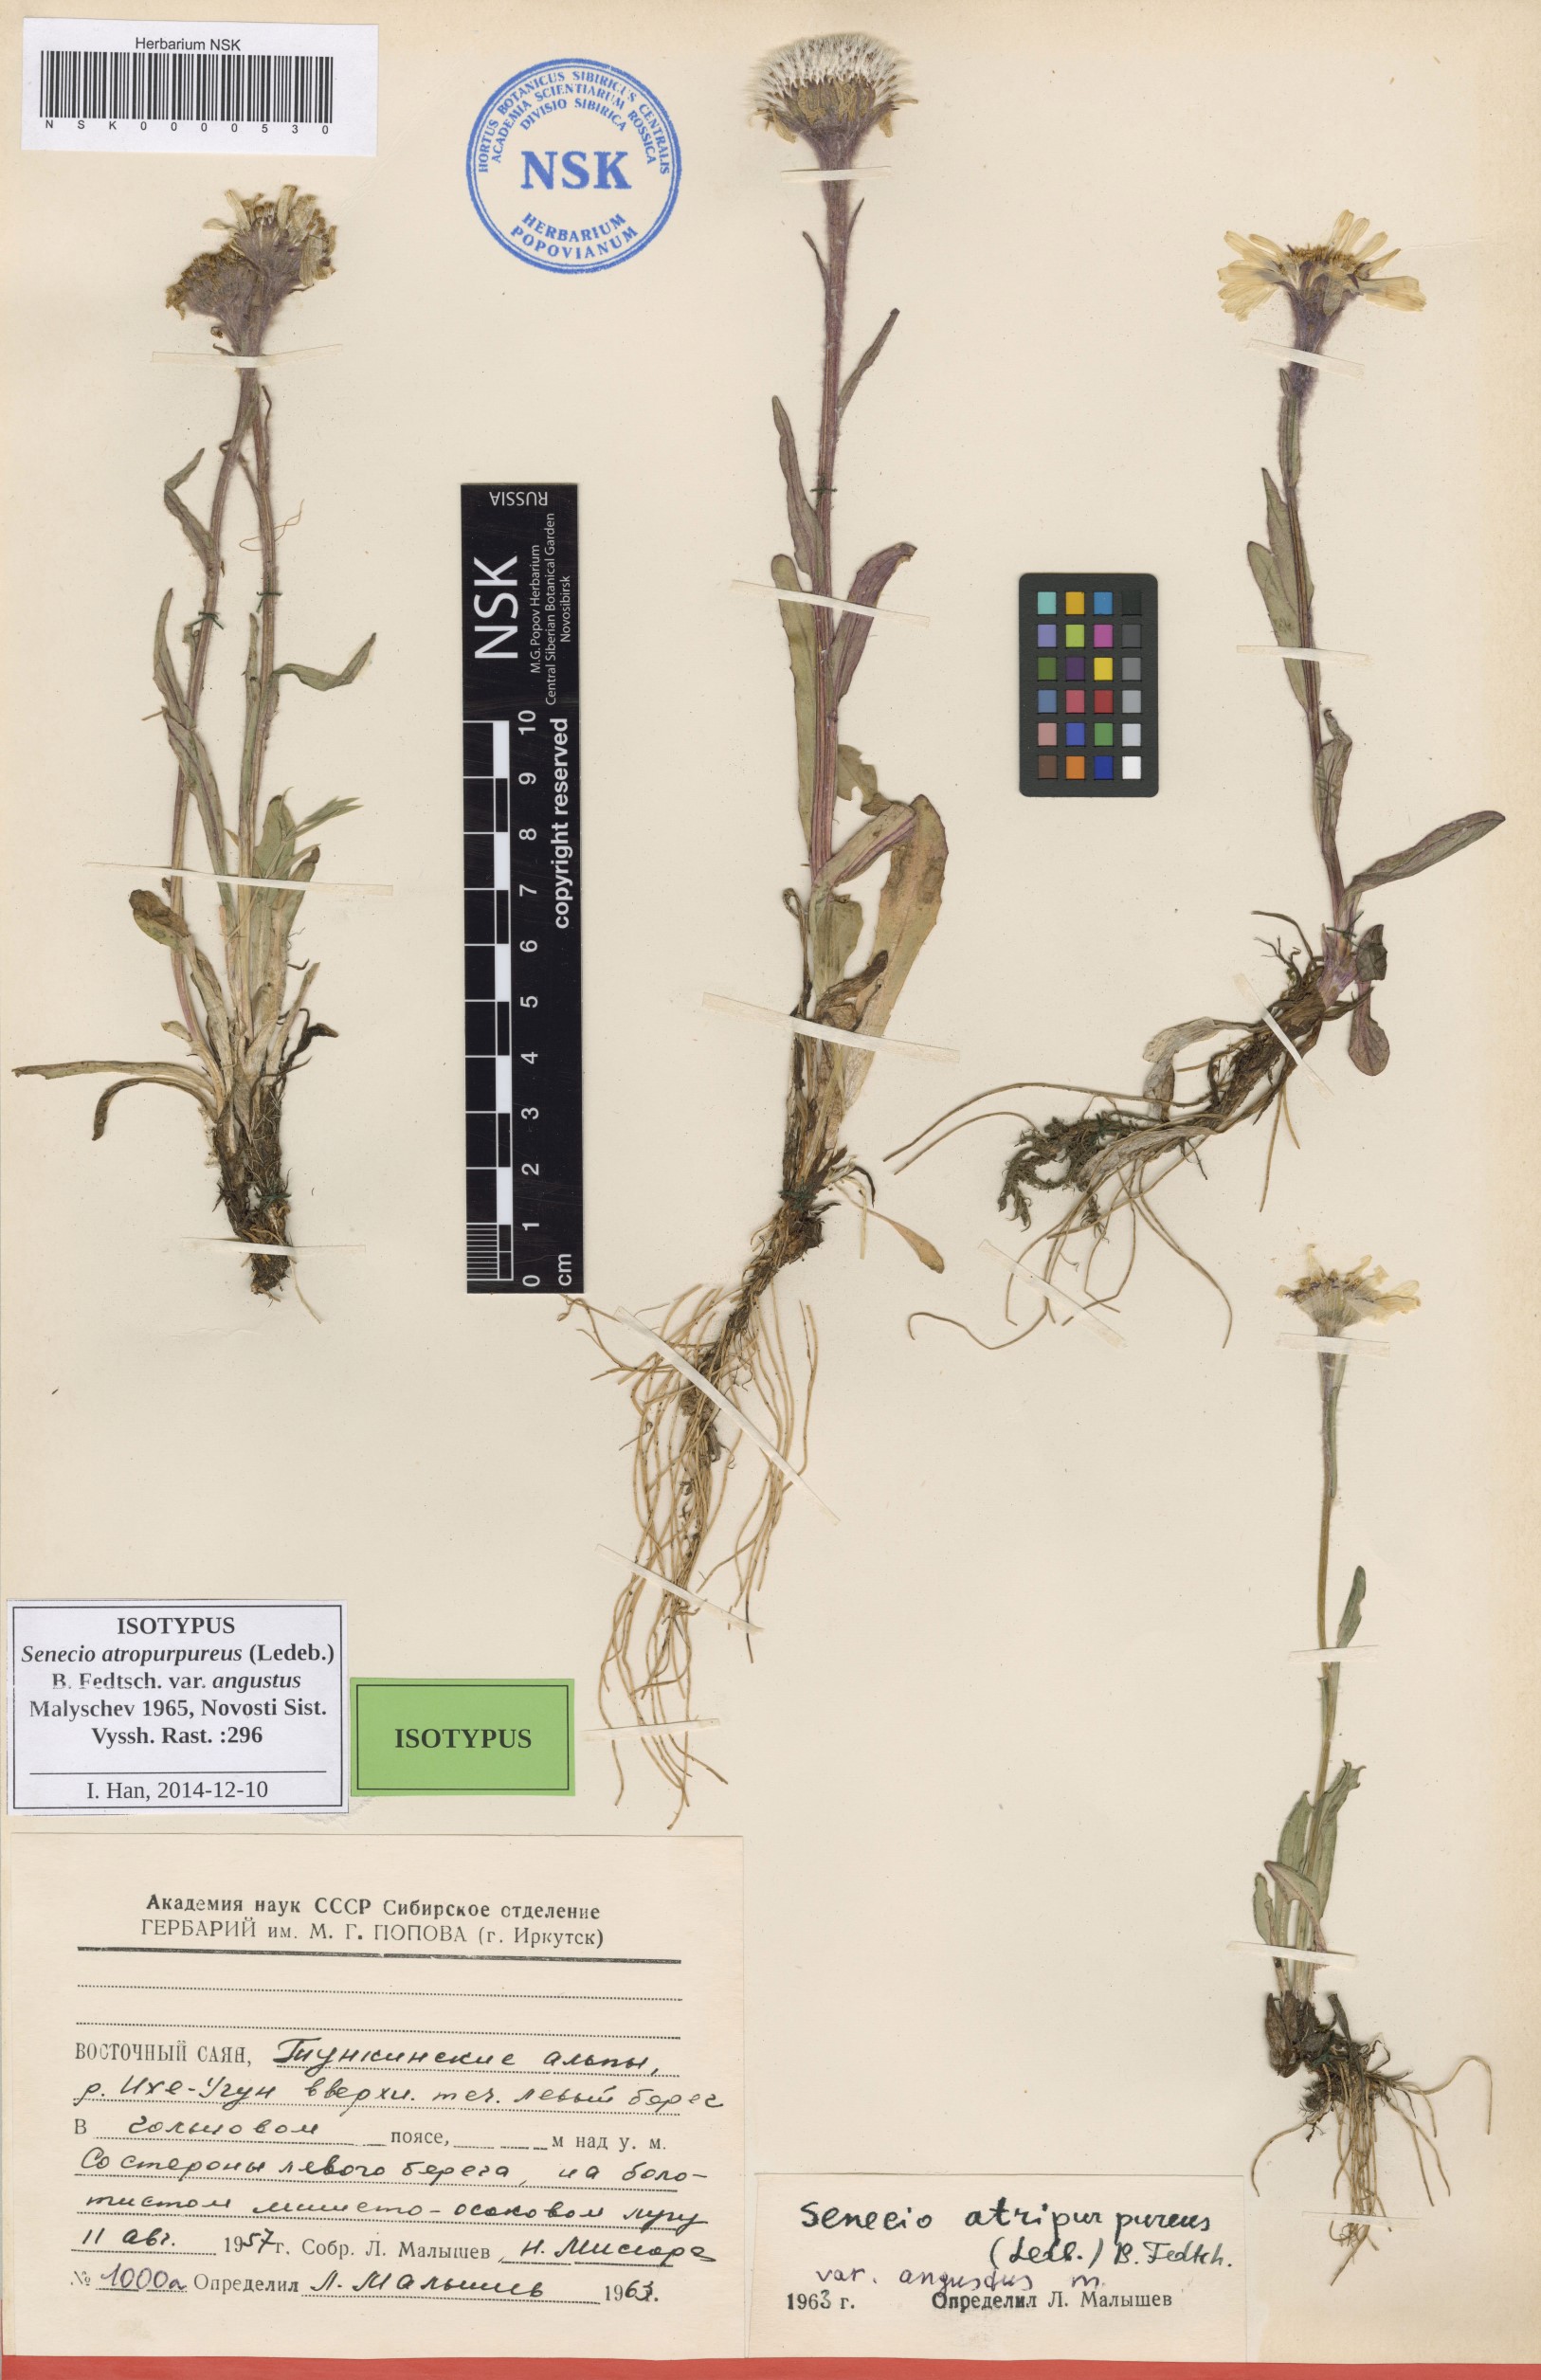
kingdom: Plantae
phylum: Tracheophyta
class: Magnoliopsida
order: Asterales
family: Asteraceae
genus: Tephroseris
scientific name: Tephroseris integrifolia
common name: Field fleawort
